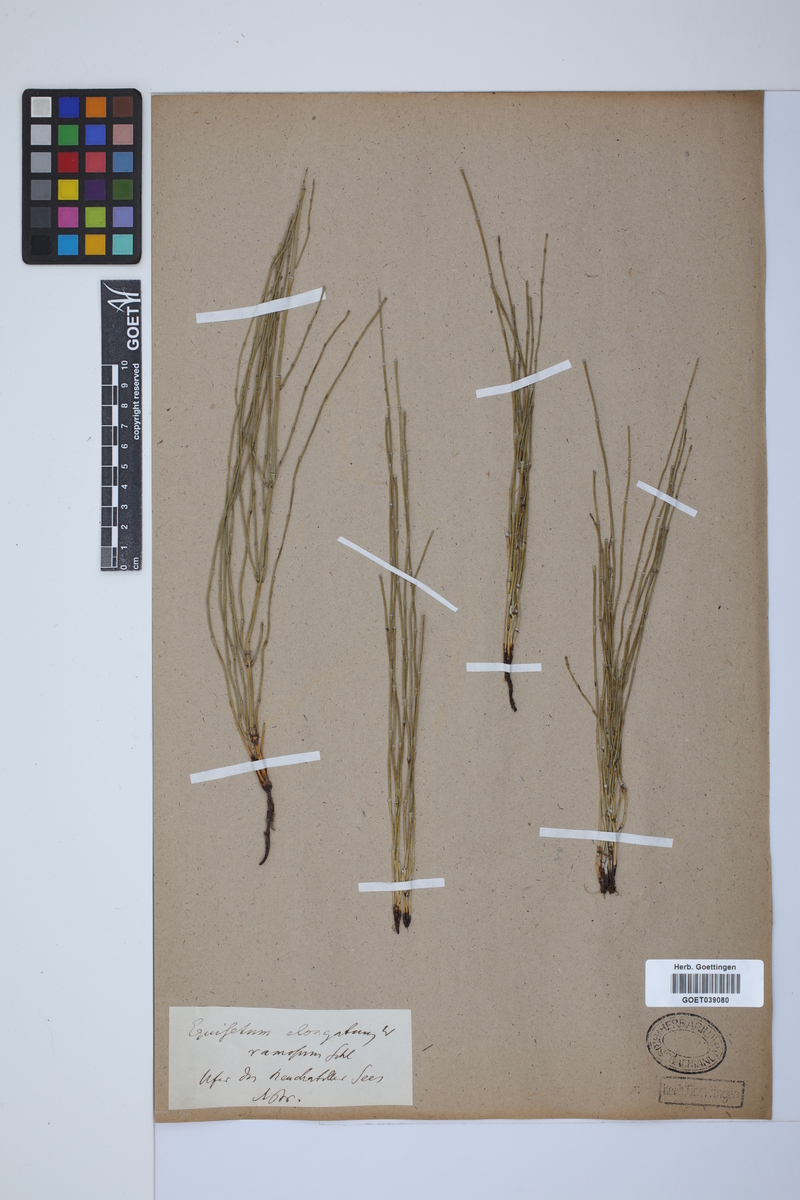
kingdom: Plantae
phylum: Tracheophyta
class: Polypodiopsida
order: Equisetales
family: Equisetaceae
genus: Equisetum
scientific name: Equisetum giganteum
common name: Giant horsetail
